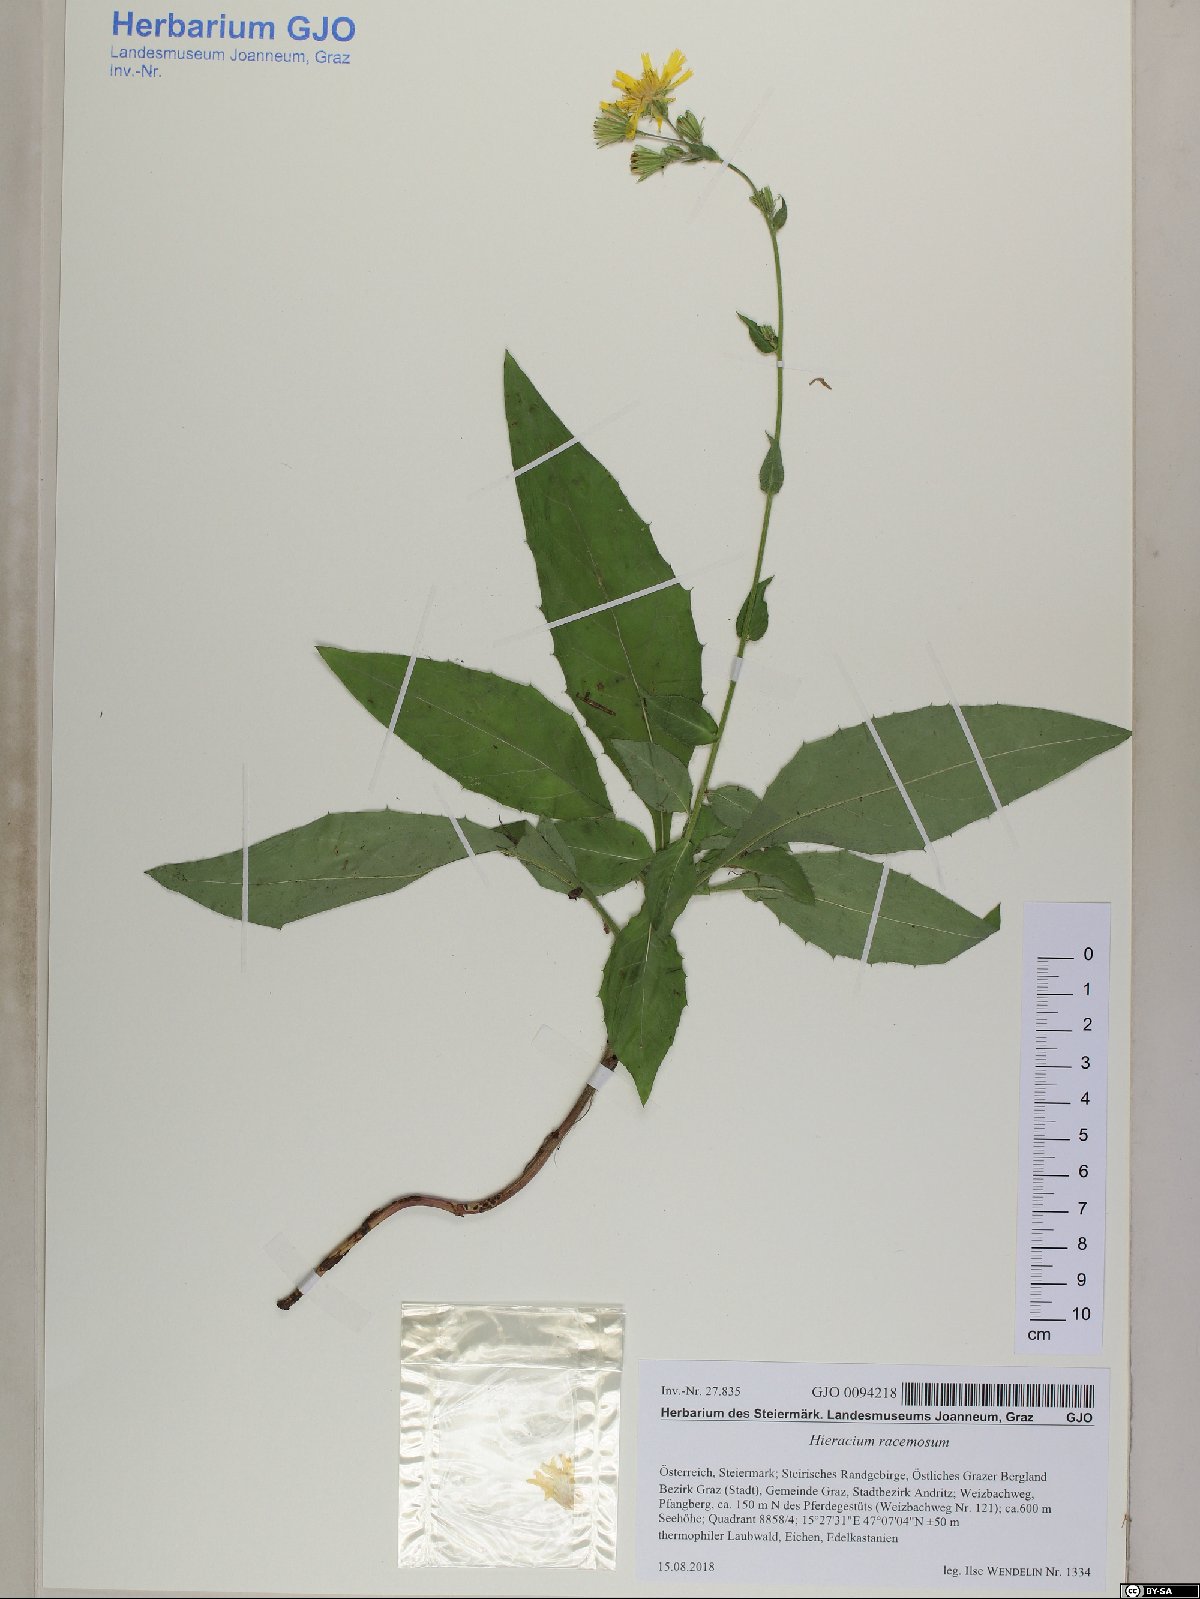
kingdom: Plantae
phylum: Tracheophyta
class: Magnoliopsida
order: Asterales
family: Asteraceae
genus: Hieracium
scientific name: Hieracium racemosum
